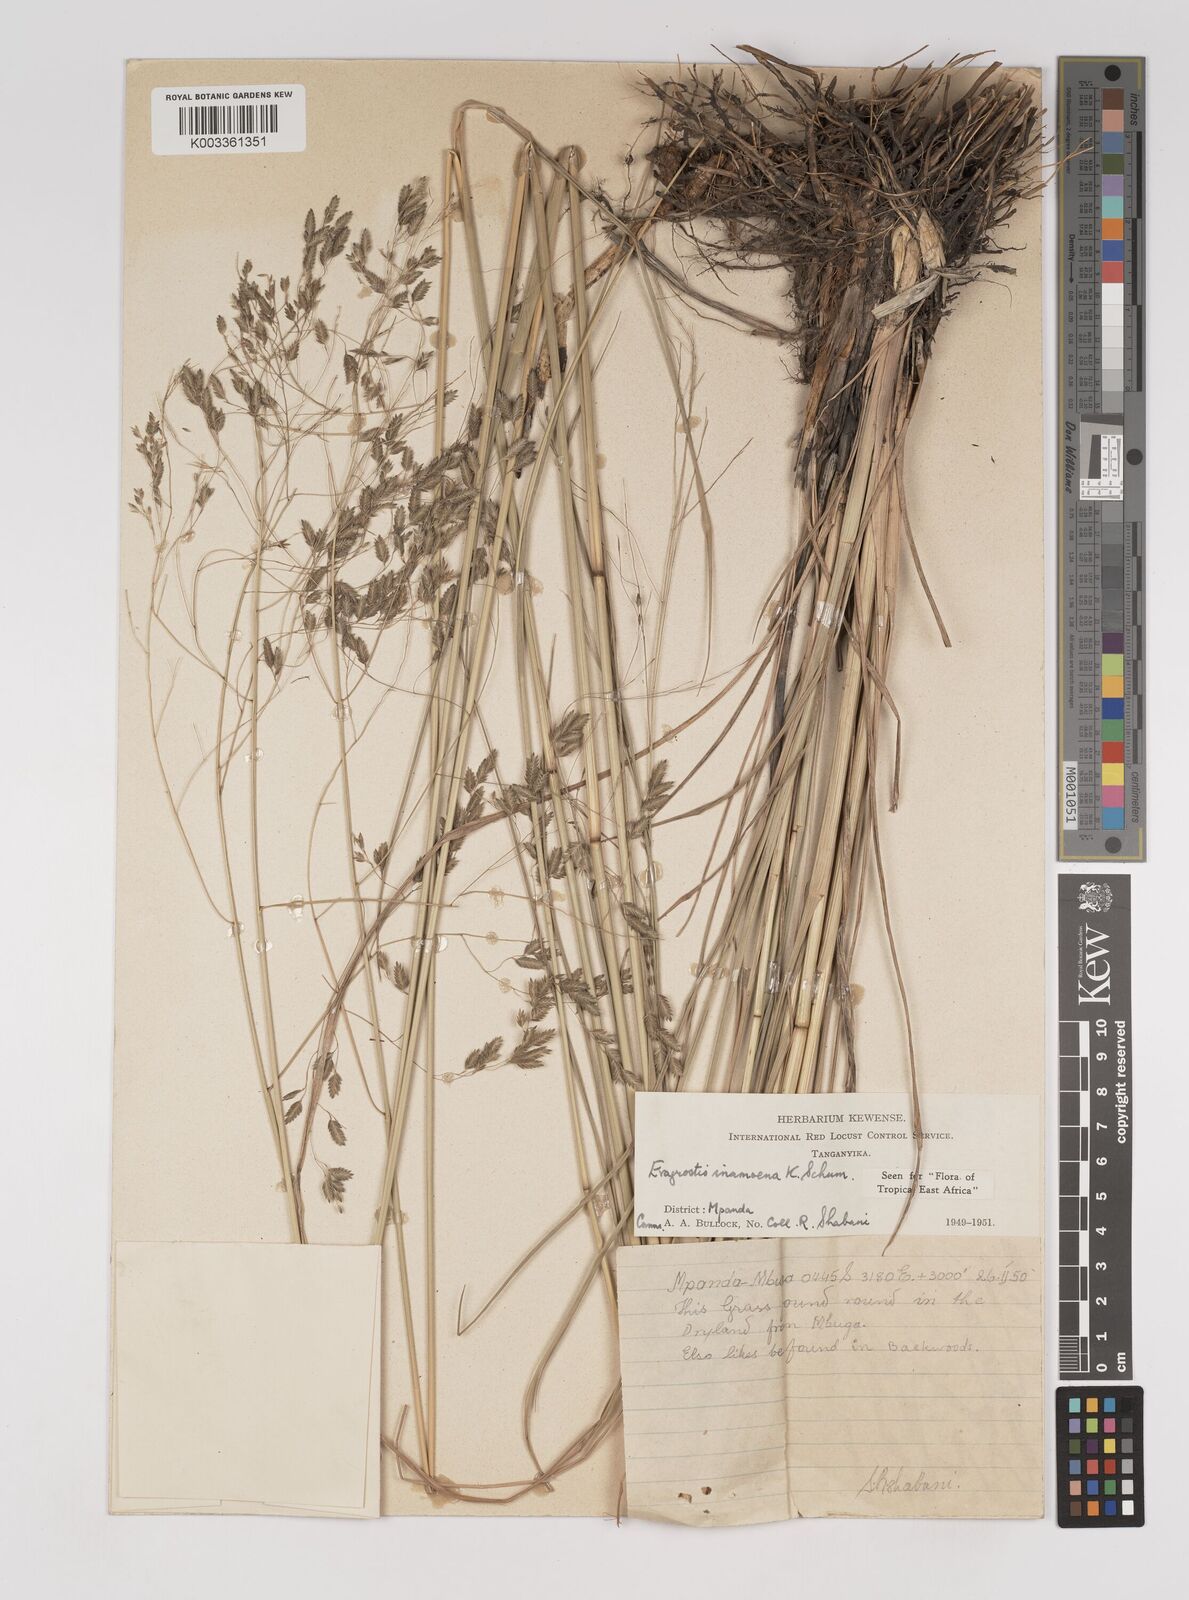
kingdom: Plantae
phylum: Tracheophyta
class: Liliopsida
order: Poales
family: Poaceae
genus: Eragrostis
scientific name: Eragrostis inamoena
